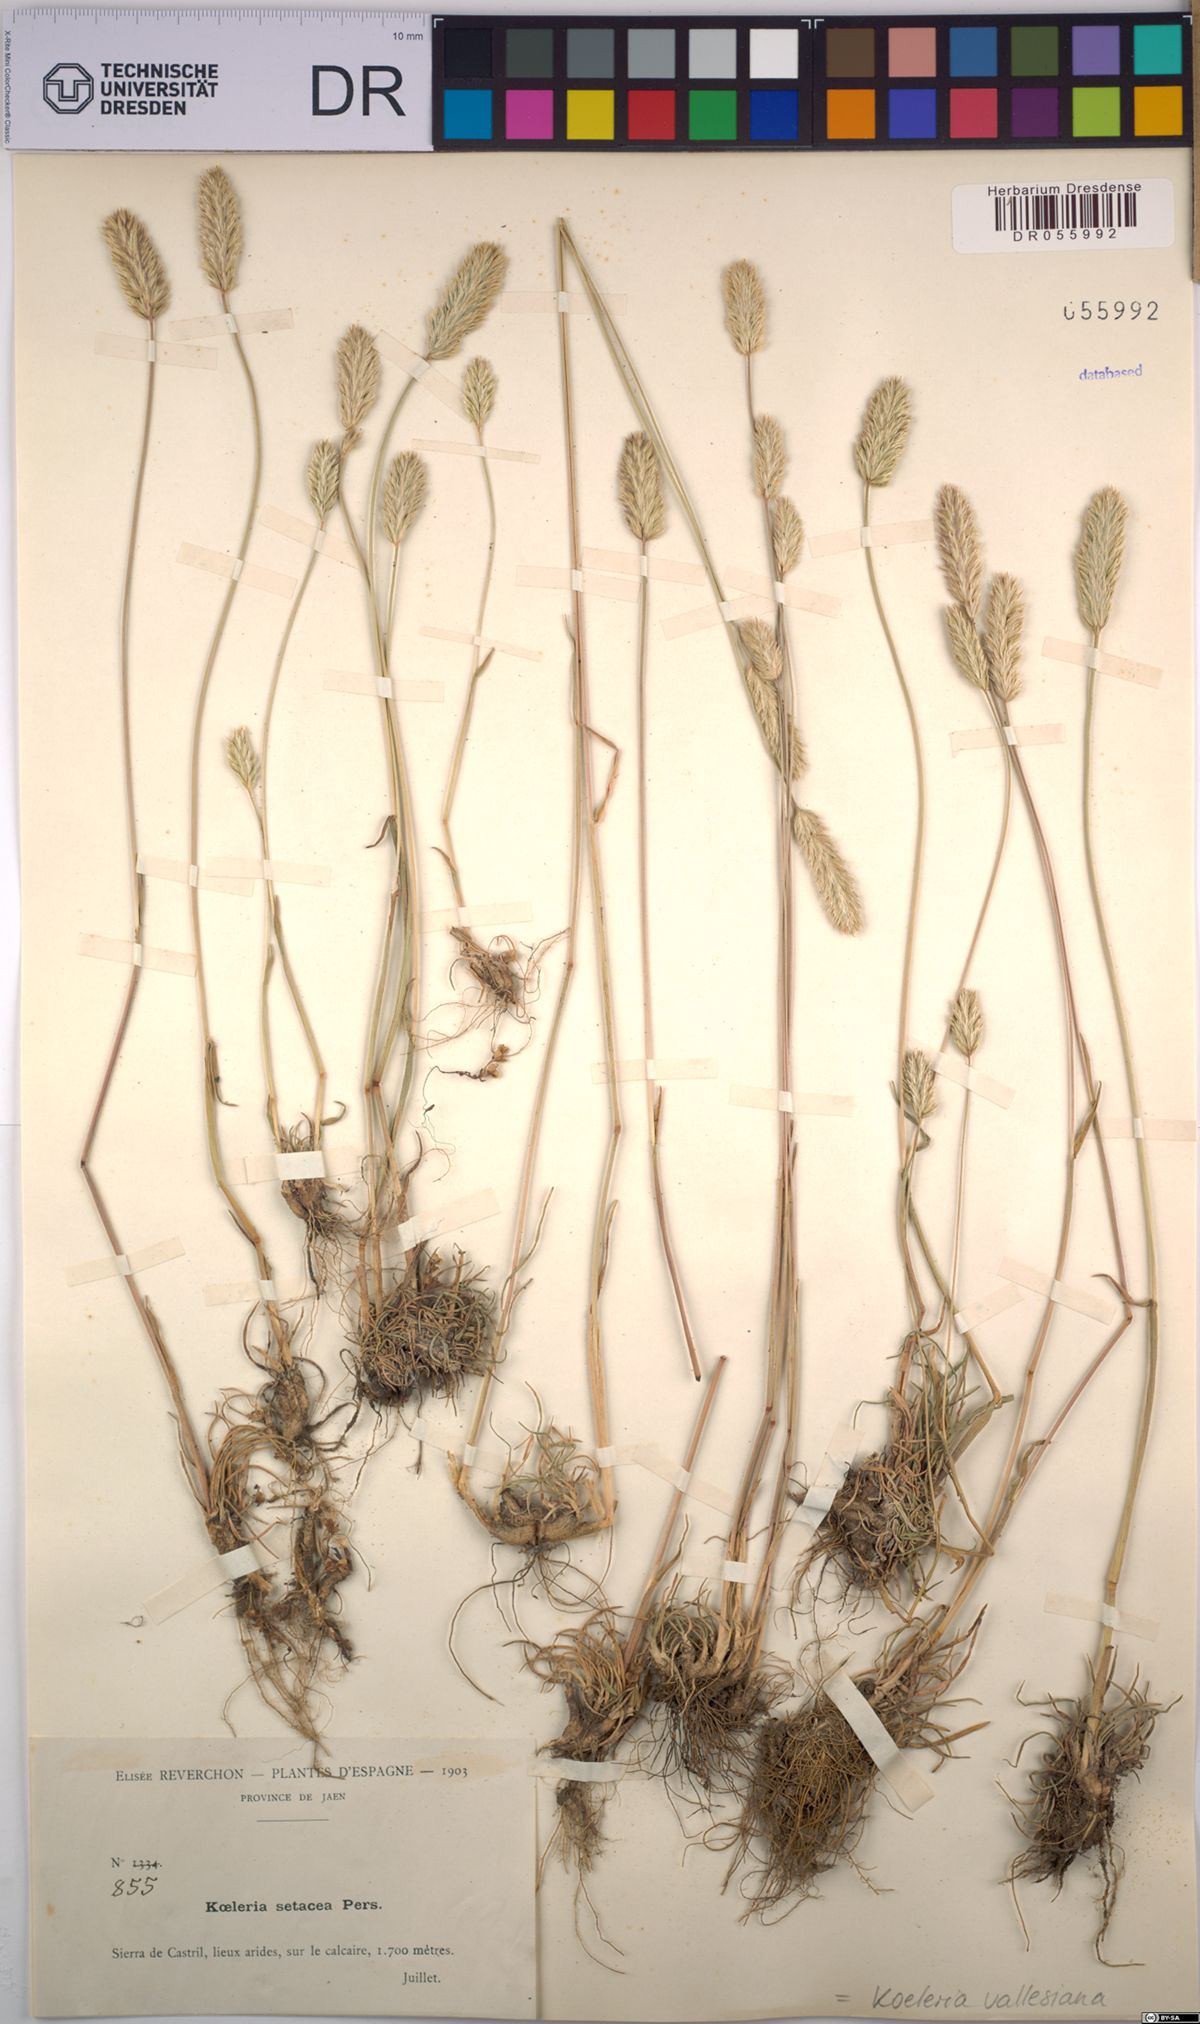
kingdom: Plantae
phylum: Tracheophyta
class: Liliopsida
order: Poales
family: Poaceae
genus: Koeleria
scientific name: Koeleria vallesiana
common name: Somerset hair-grass
